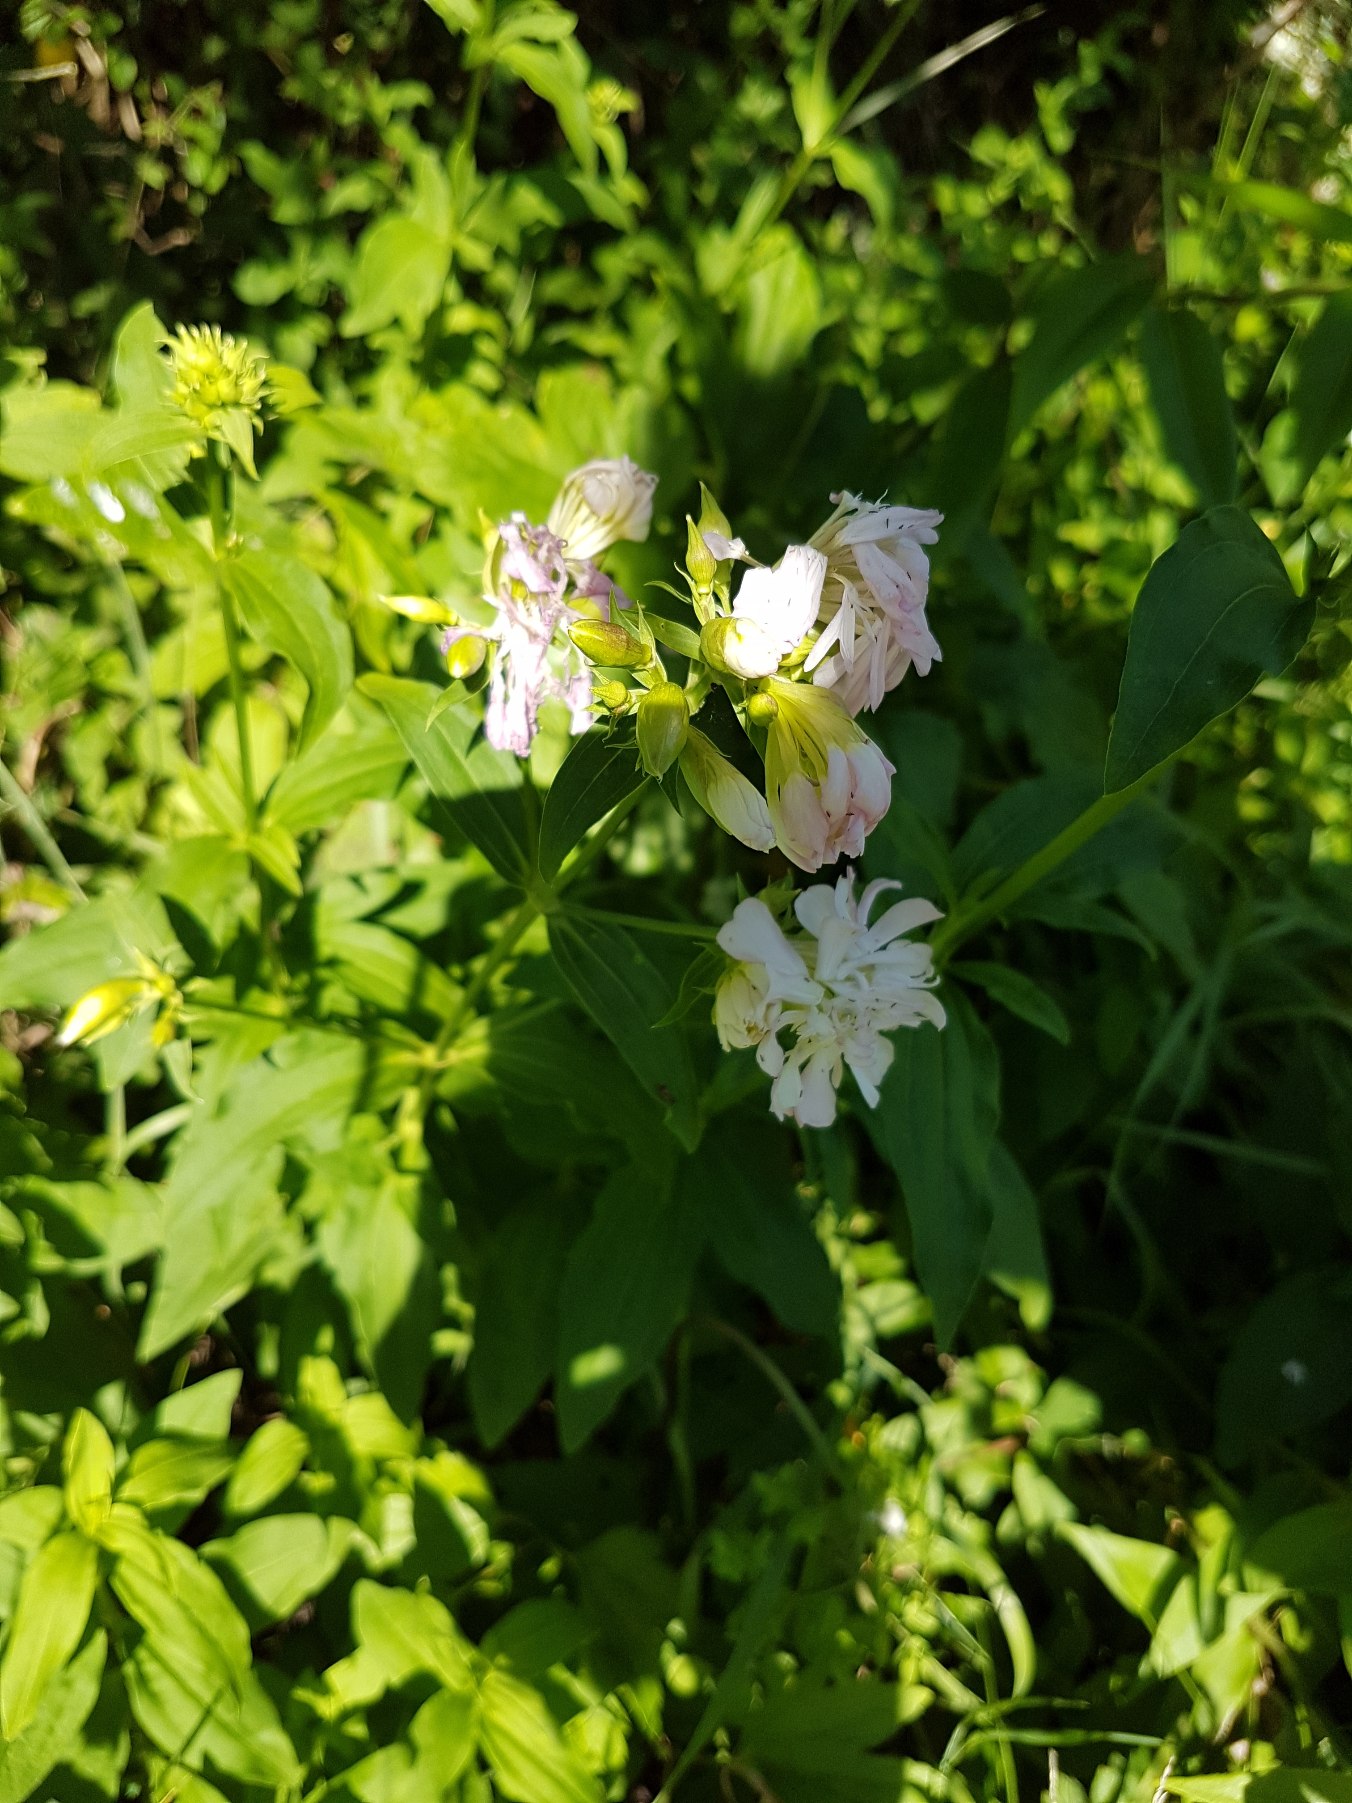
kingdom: Plantae
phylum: Tracheophyta
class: Magnoliopsida
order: Caryophyllales
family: Caryophyllaceae
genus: Saponaria
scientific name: Saponaria officinalis
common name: Sæbeurt
